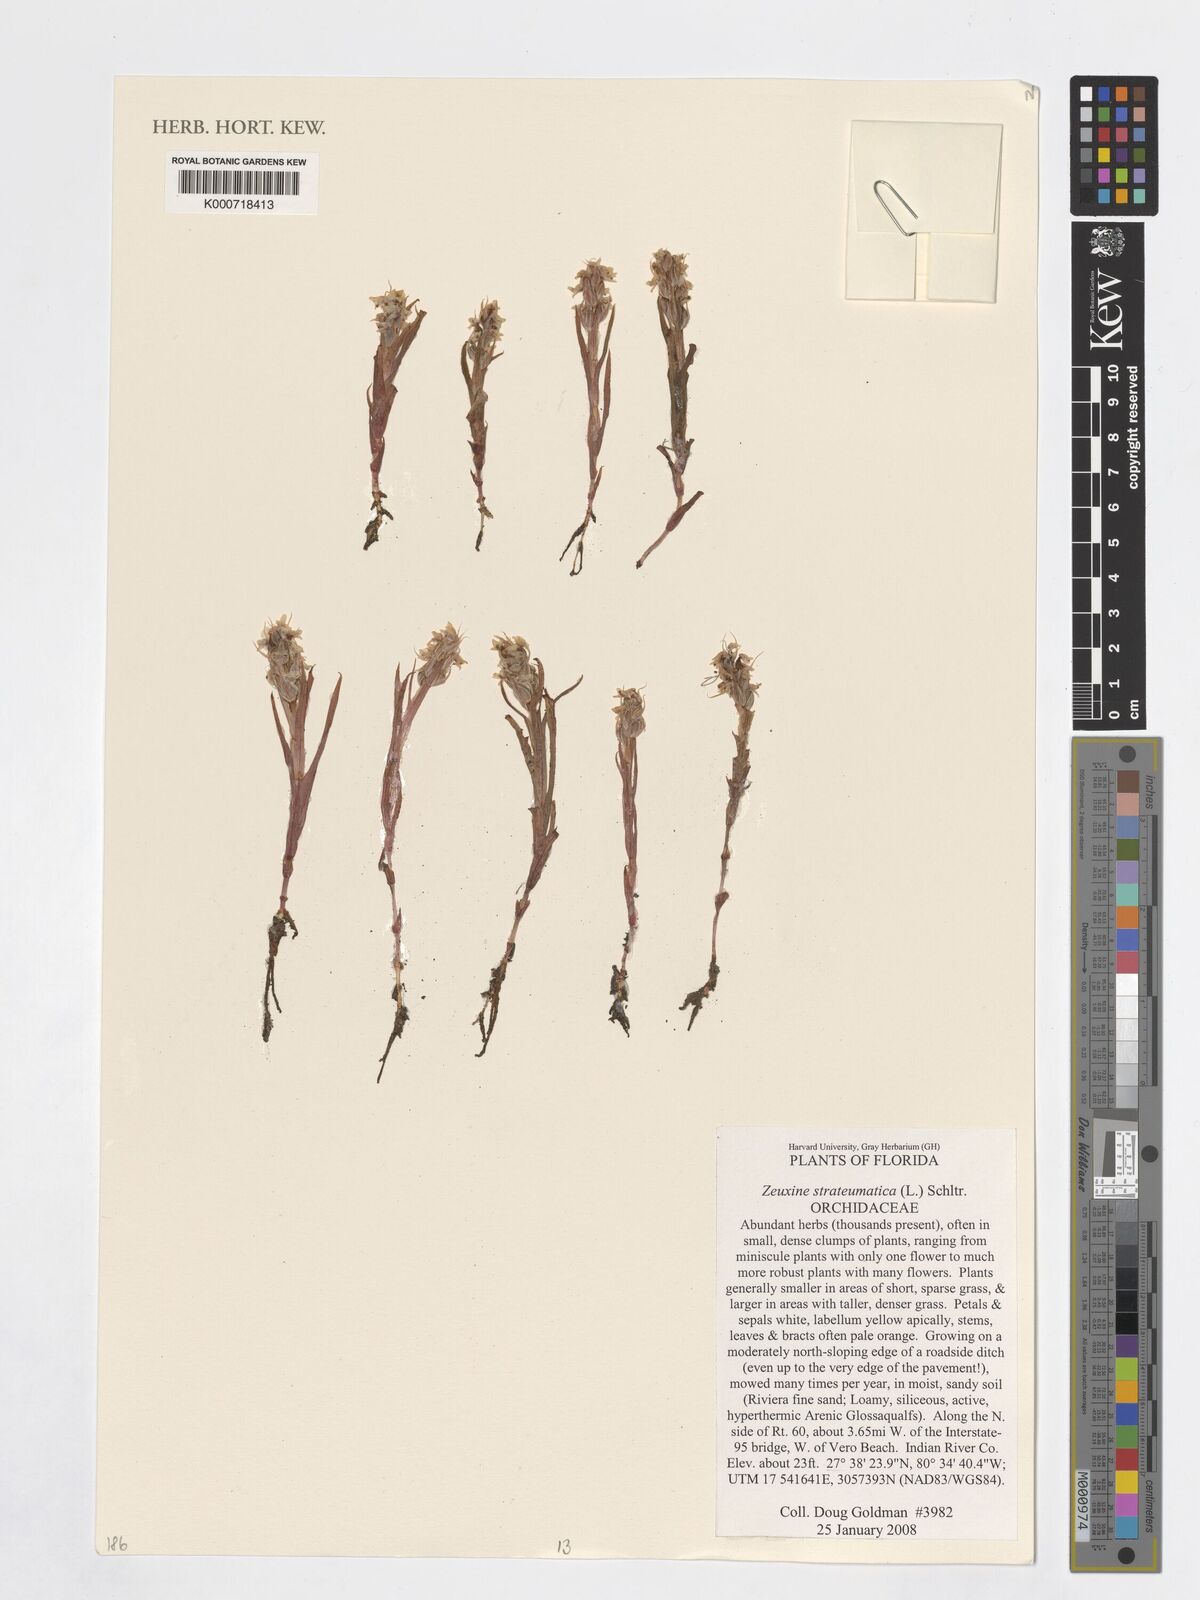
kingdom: Plantae
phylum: Tracheophyta
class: Liliopsida
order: Asparagales
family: Orchidaceae
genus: Zeuxine
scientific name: Zeuxine strateumatica
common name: Soldier's orchid
